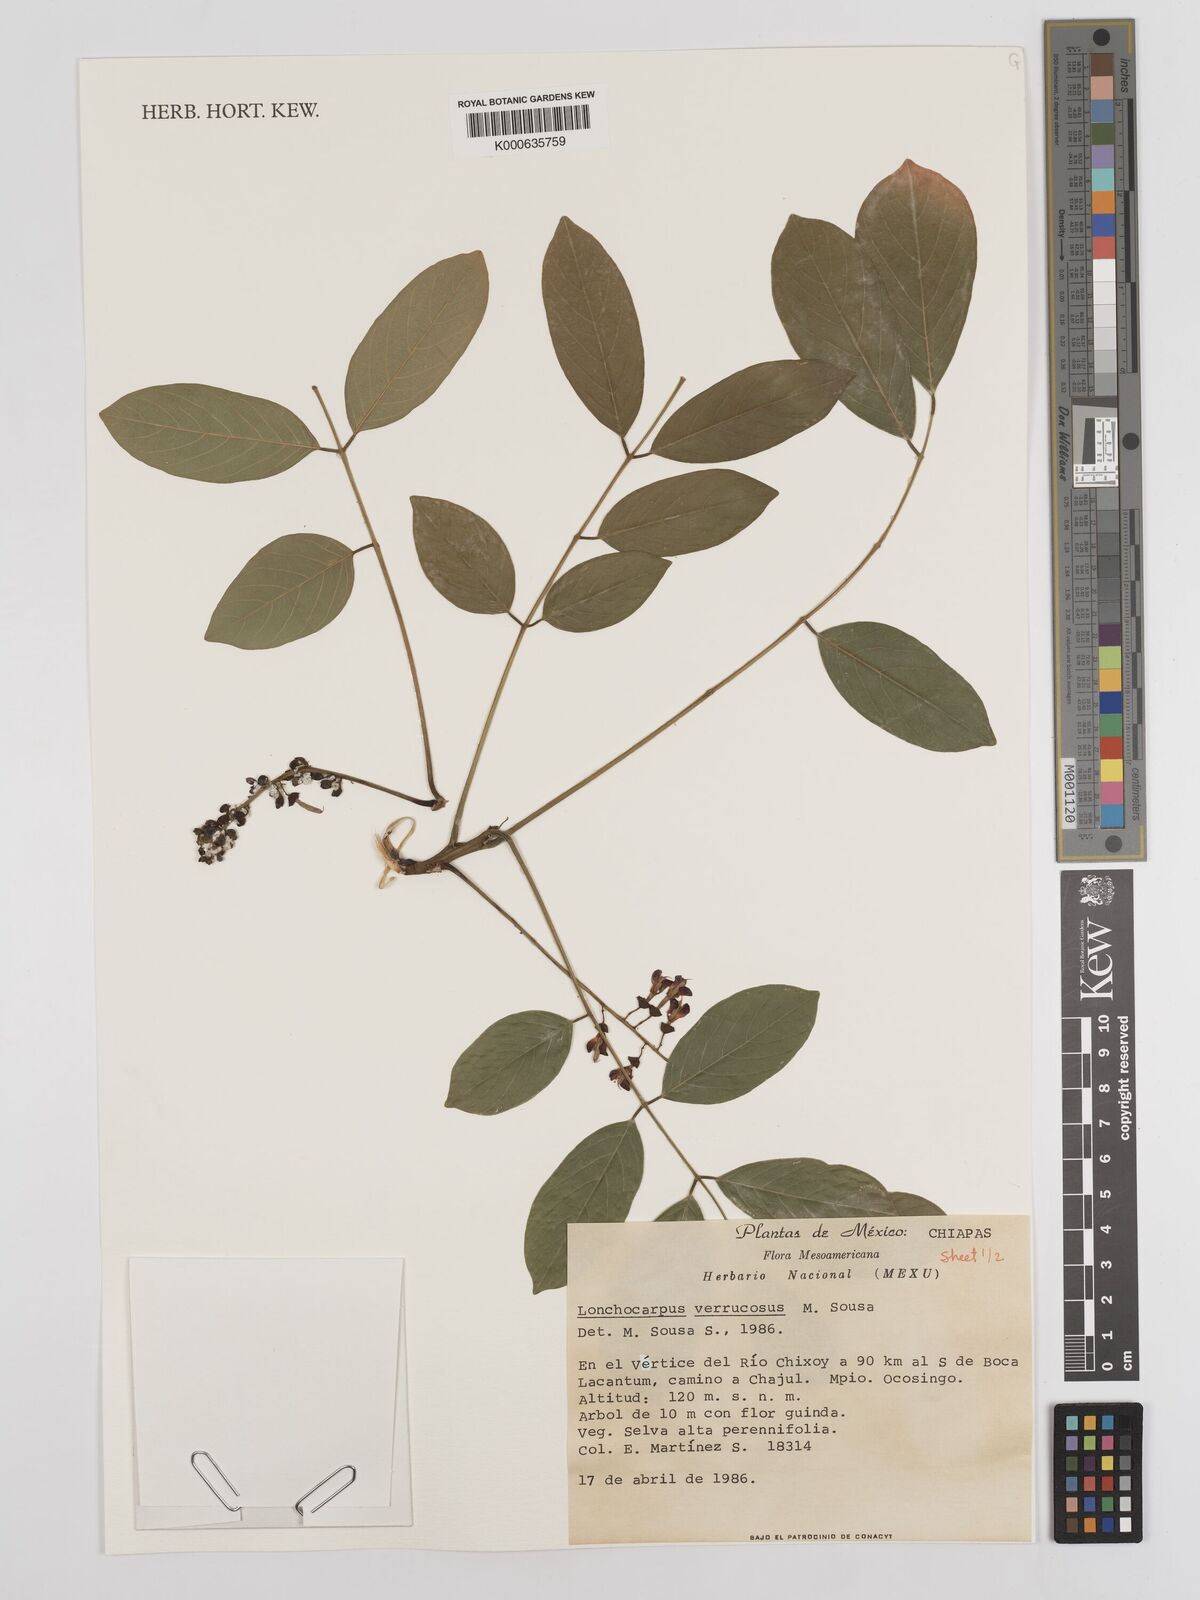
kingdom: Plantae
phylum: Tracheophyta
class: Magnoliopsida
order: Fabales
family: Fabaceae
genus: Lonchocarpus
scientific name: Lonchocarpus verrucosus
